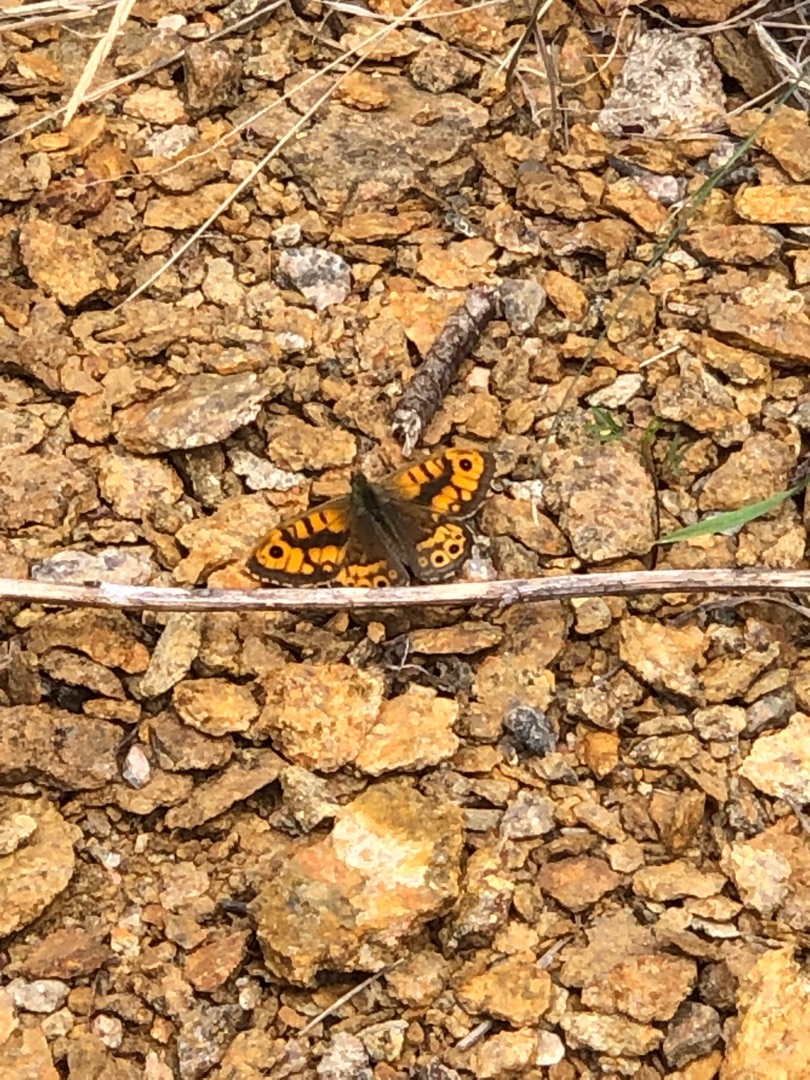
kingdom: Animalia
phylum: Arthropoda
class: Insecta
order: Lepidoptera
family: Nymphalidae
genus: Pararge
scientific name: Pararge Lasiommata megera
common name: Vejrandøje
